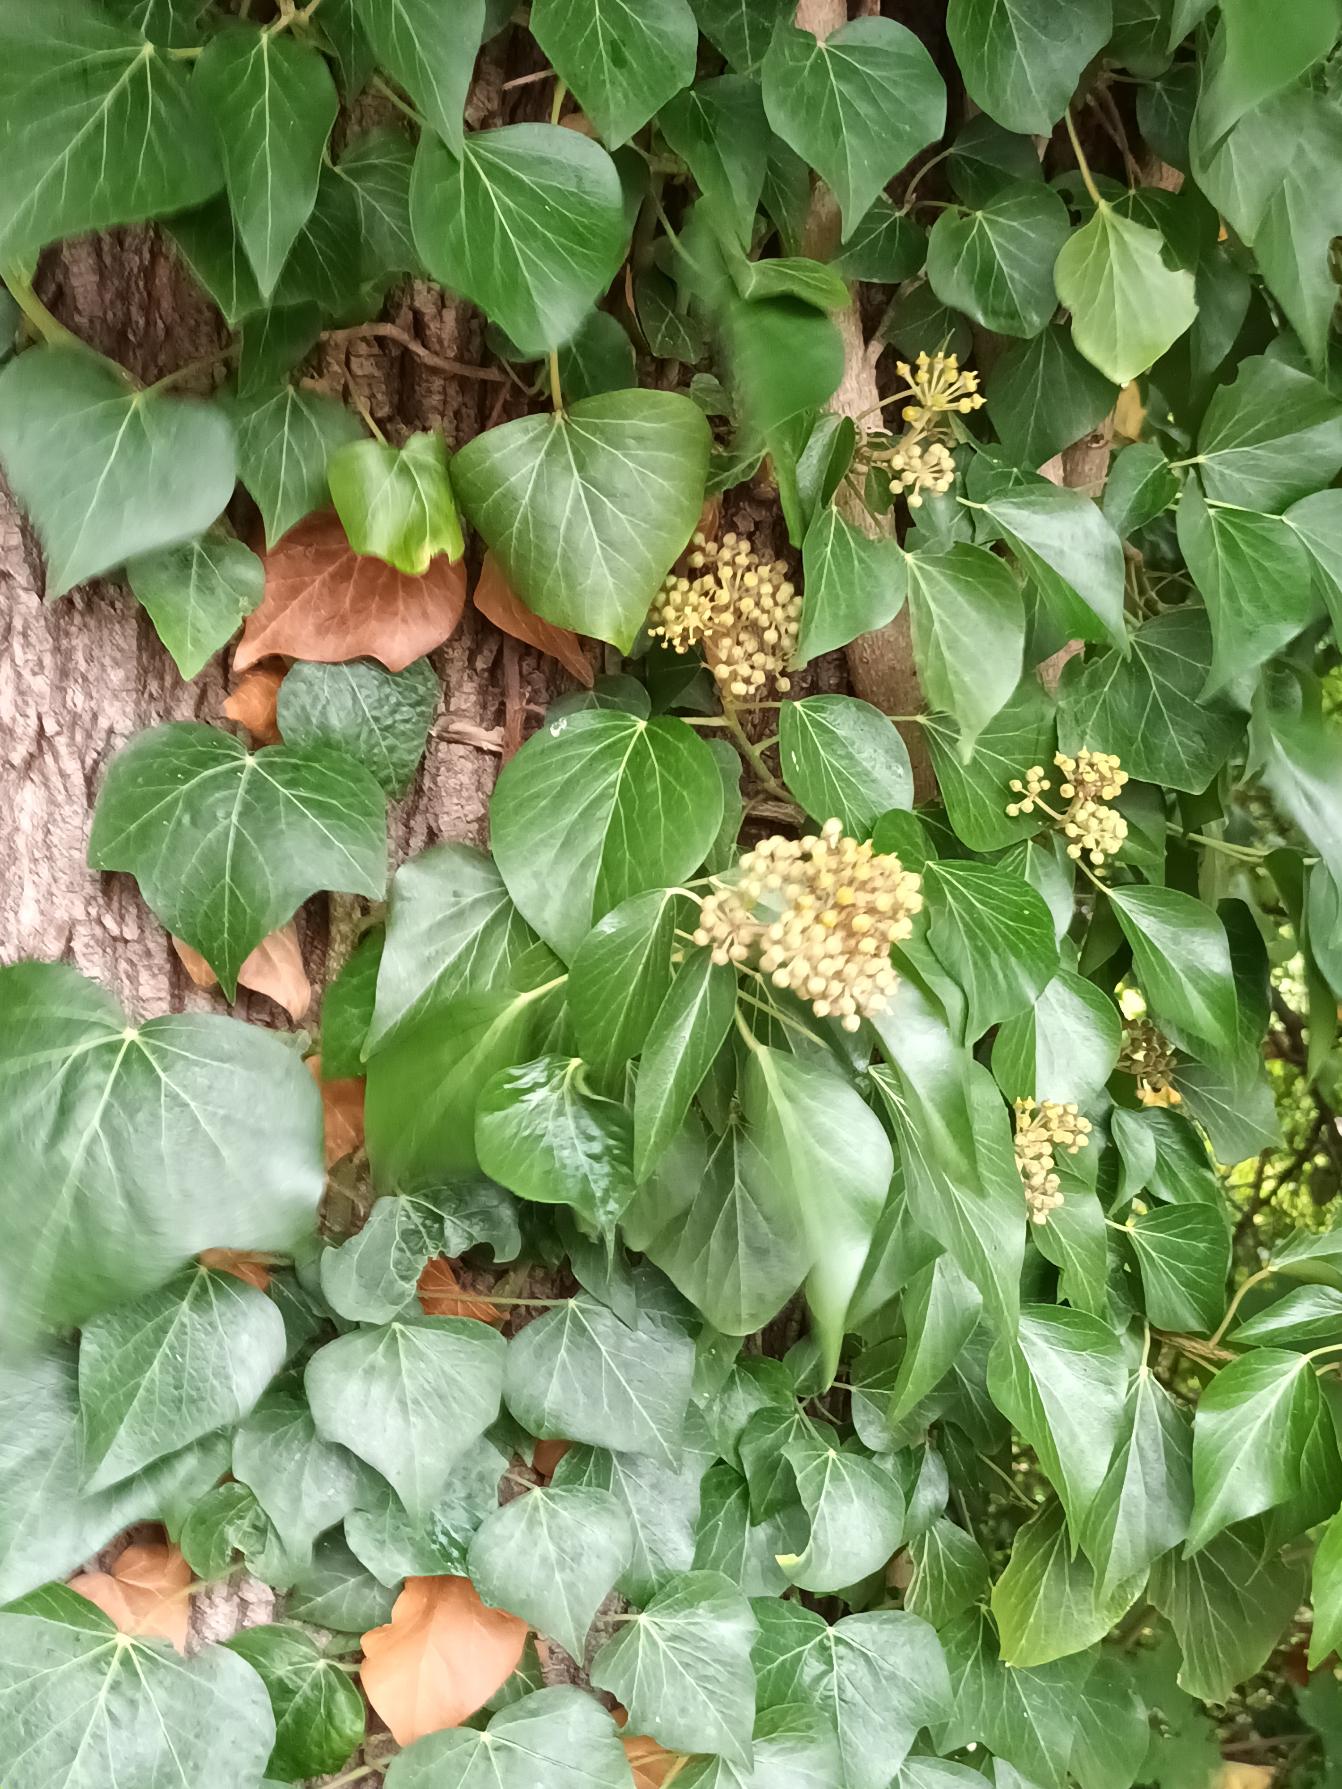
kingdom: Plantae
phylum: Tracheophyta
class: Magnoliopsida
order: Apiales
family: Araliaceae
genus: Hedera
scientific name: Hedera helix
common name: Vedbend
